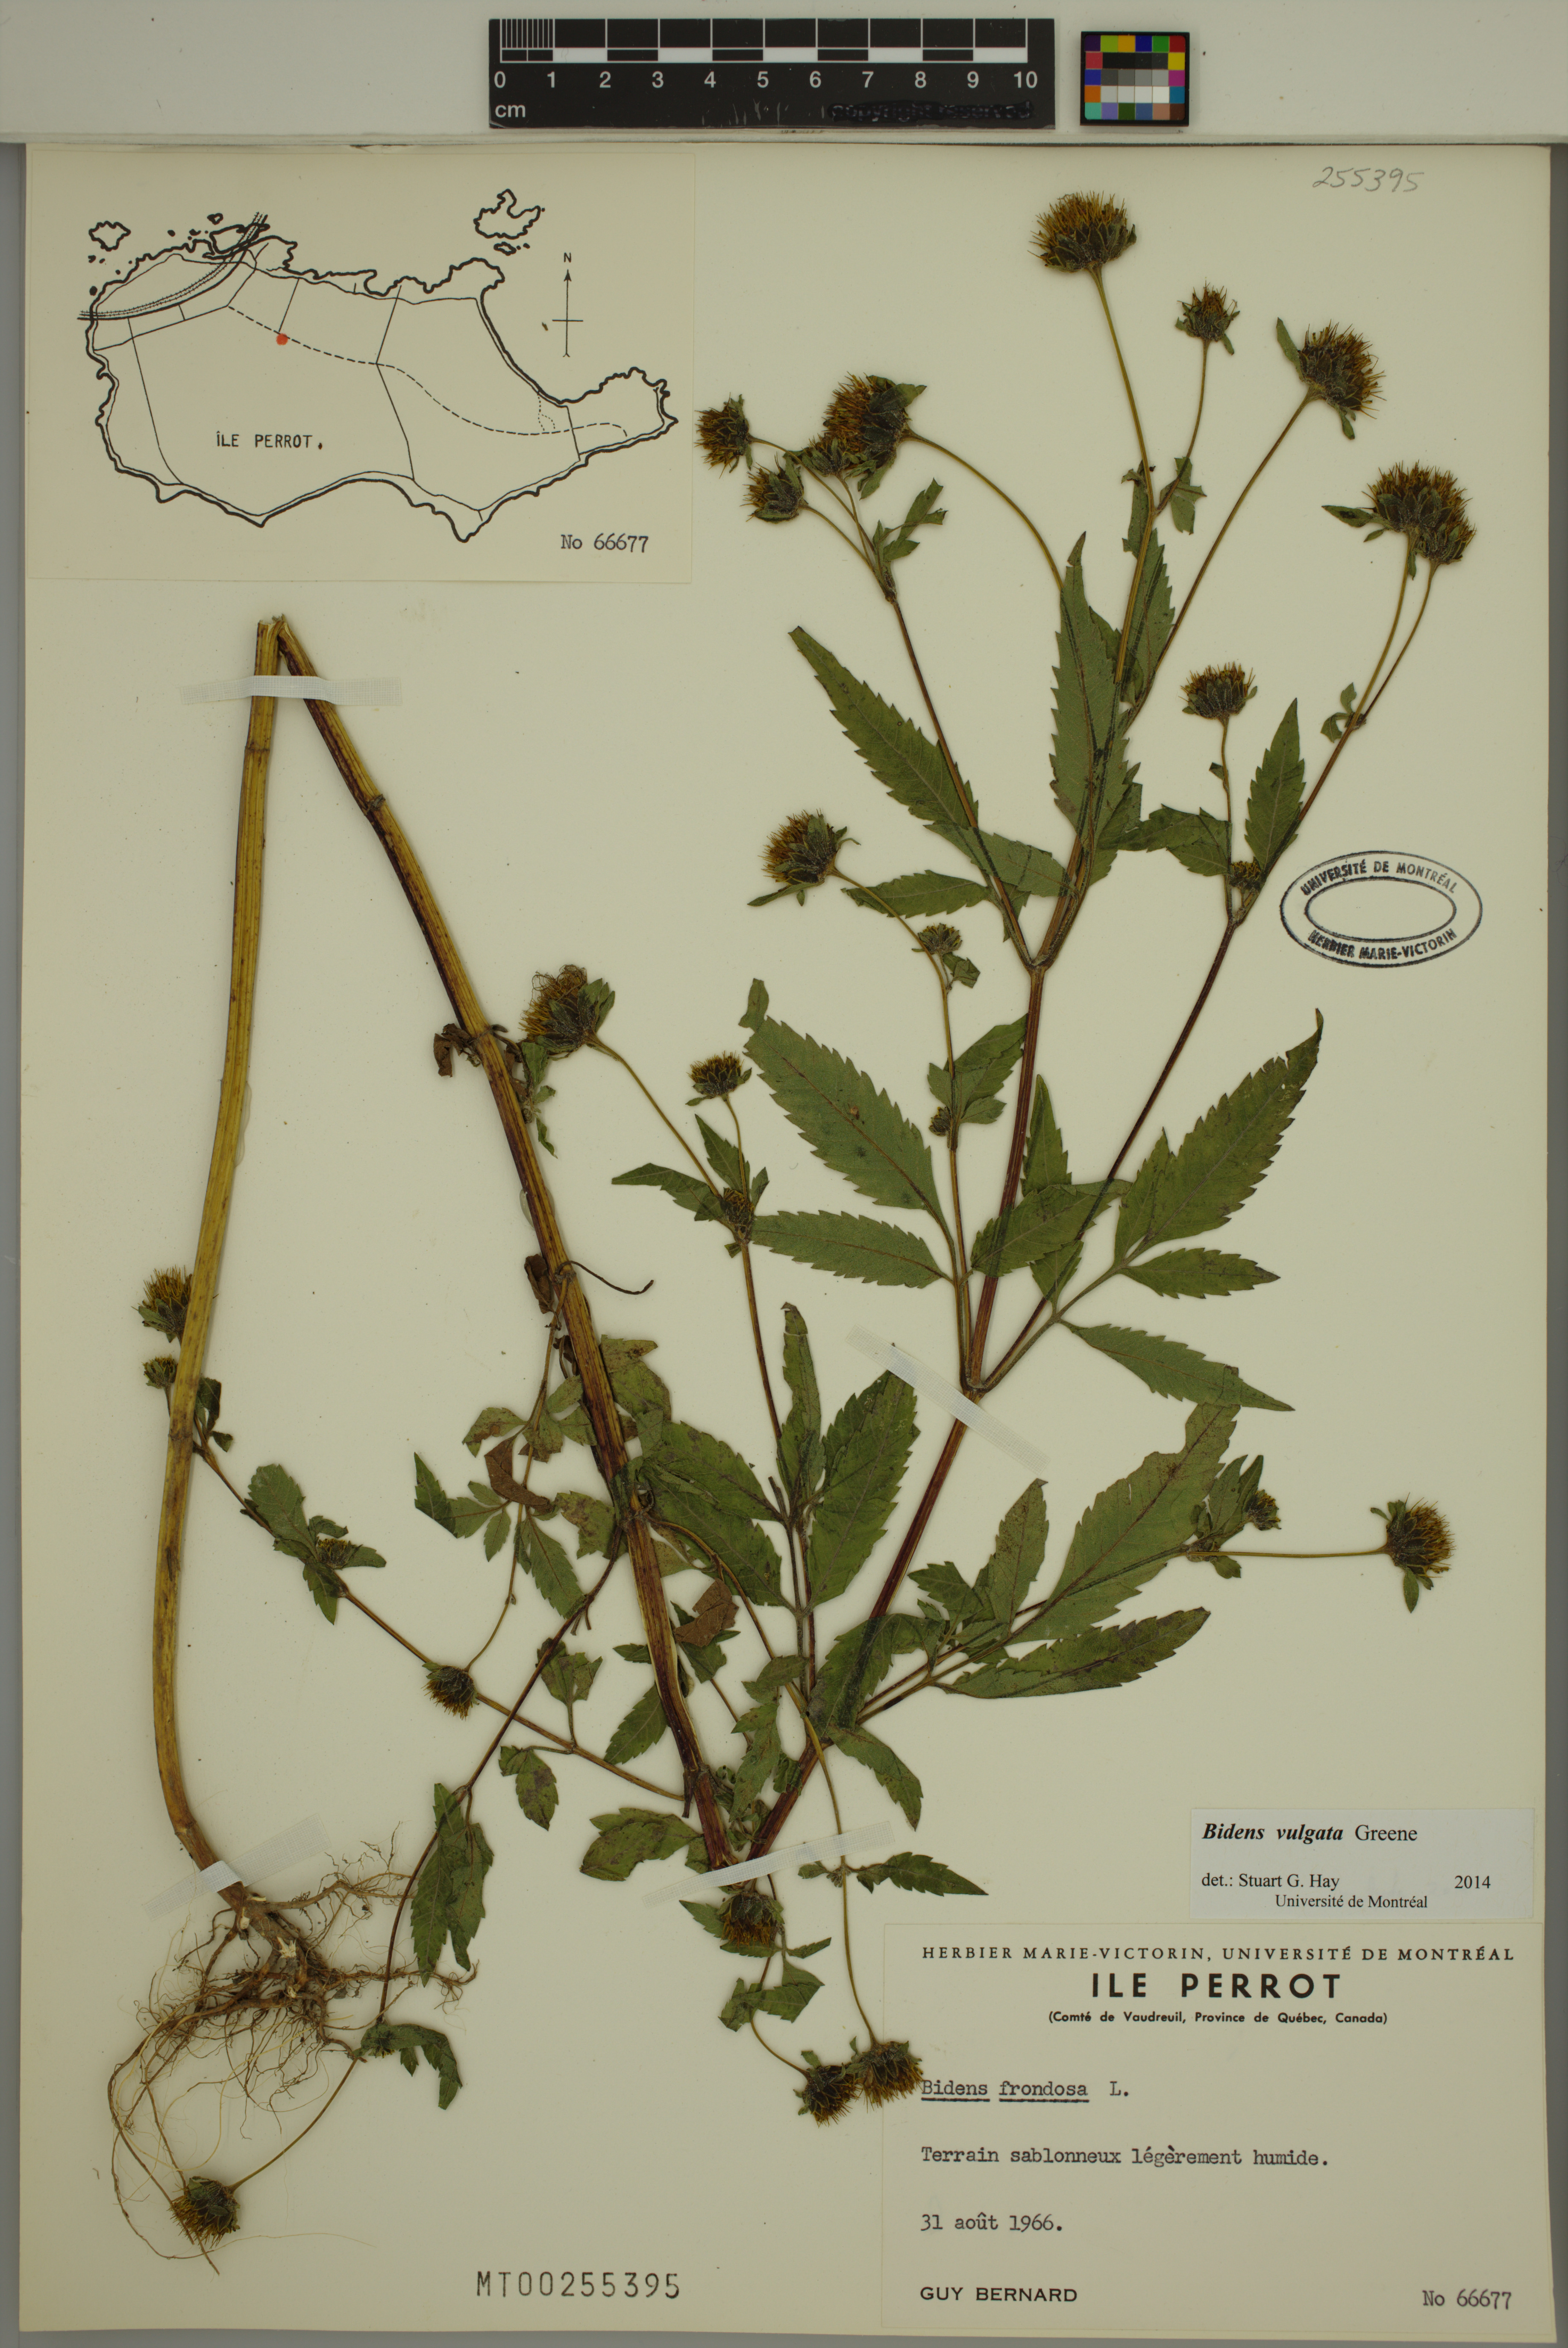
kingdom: Plantae
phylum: Tracheophyta
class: Magnoliopsida
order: Asterales
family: Asteraceae
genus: Bidens
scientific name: Bidens vulgata
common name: Tall beggarticks
